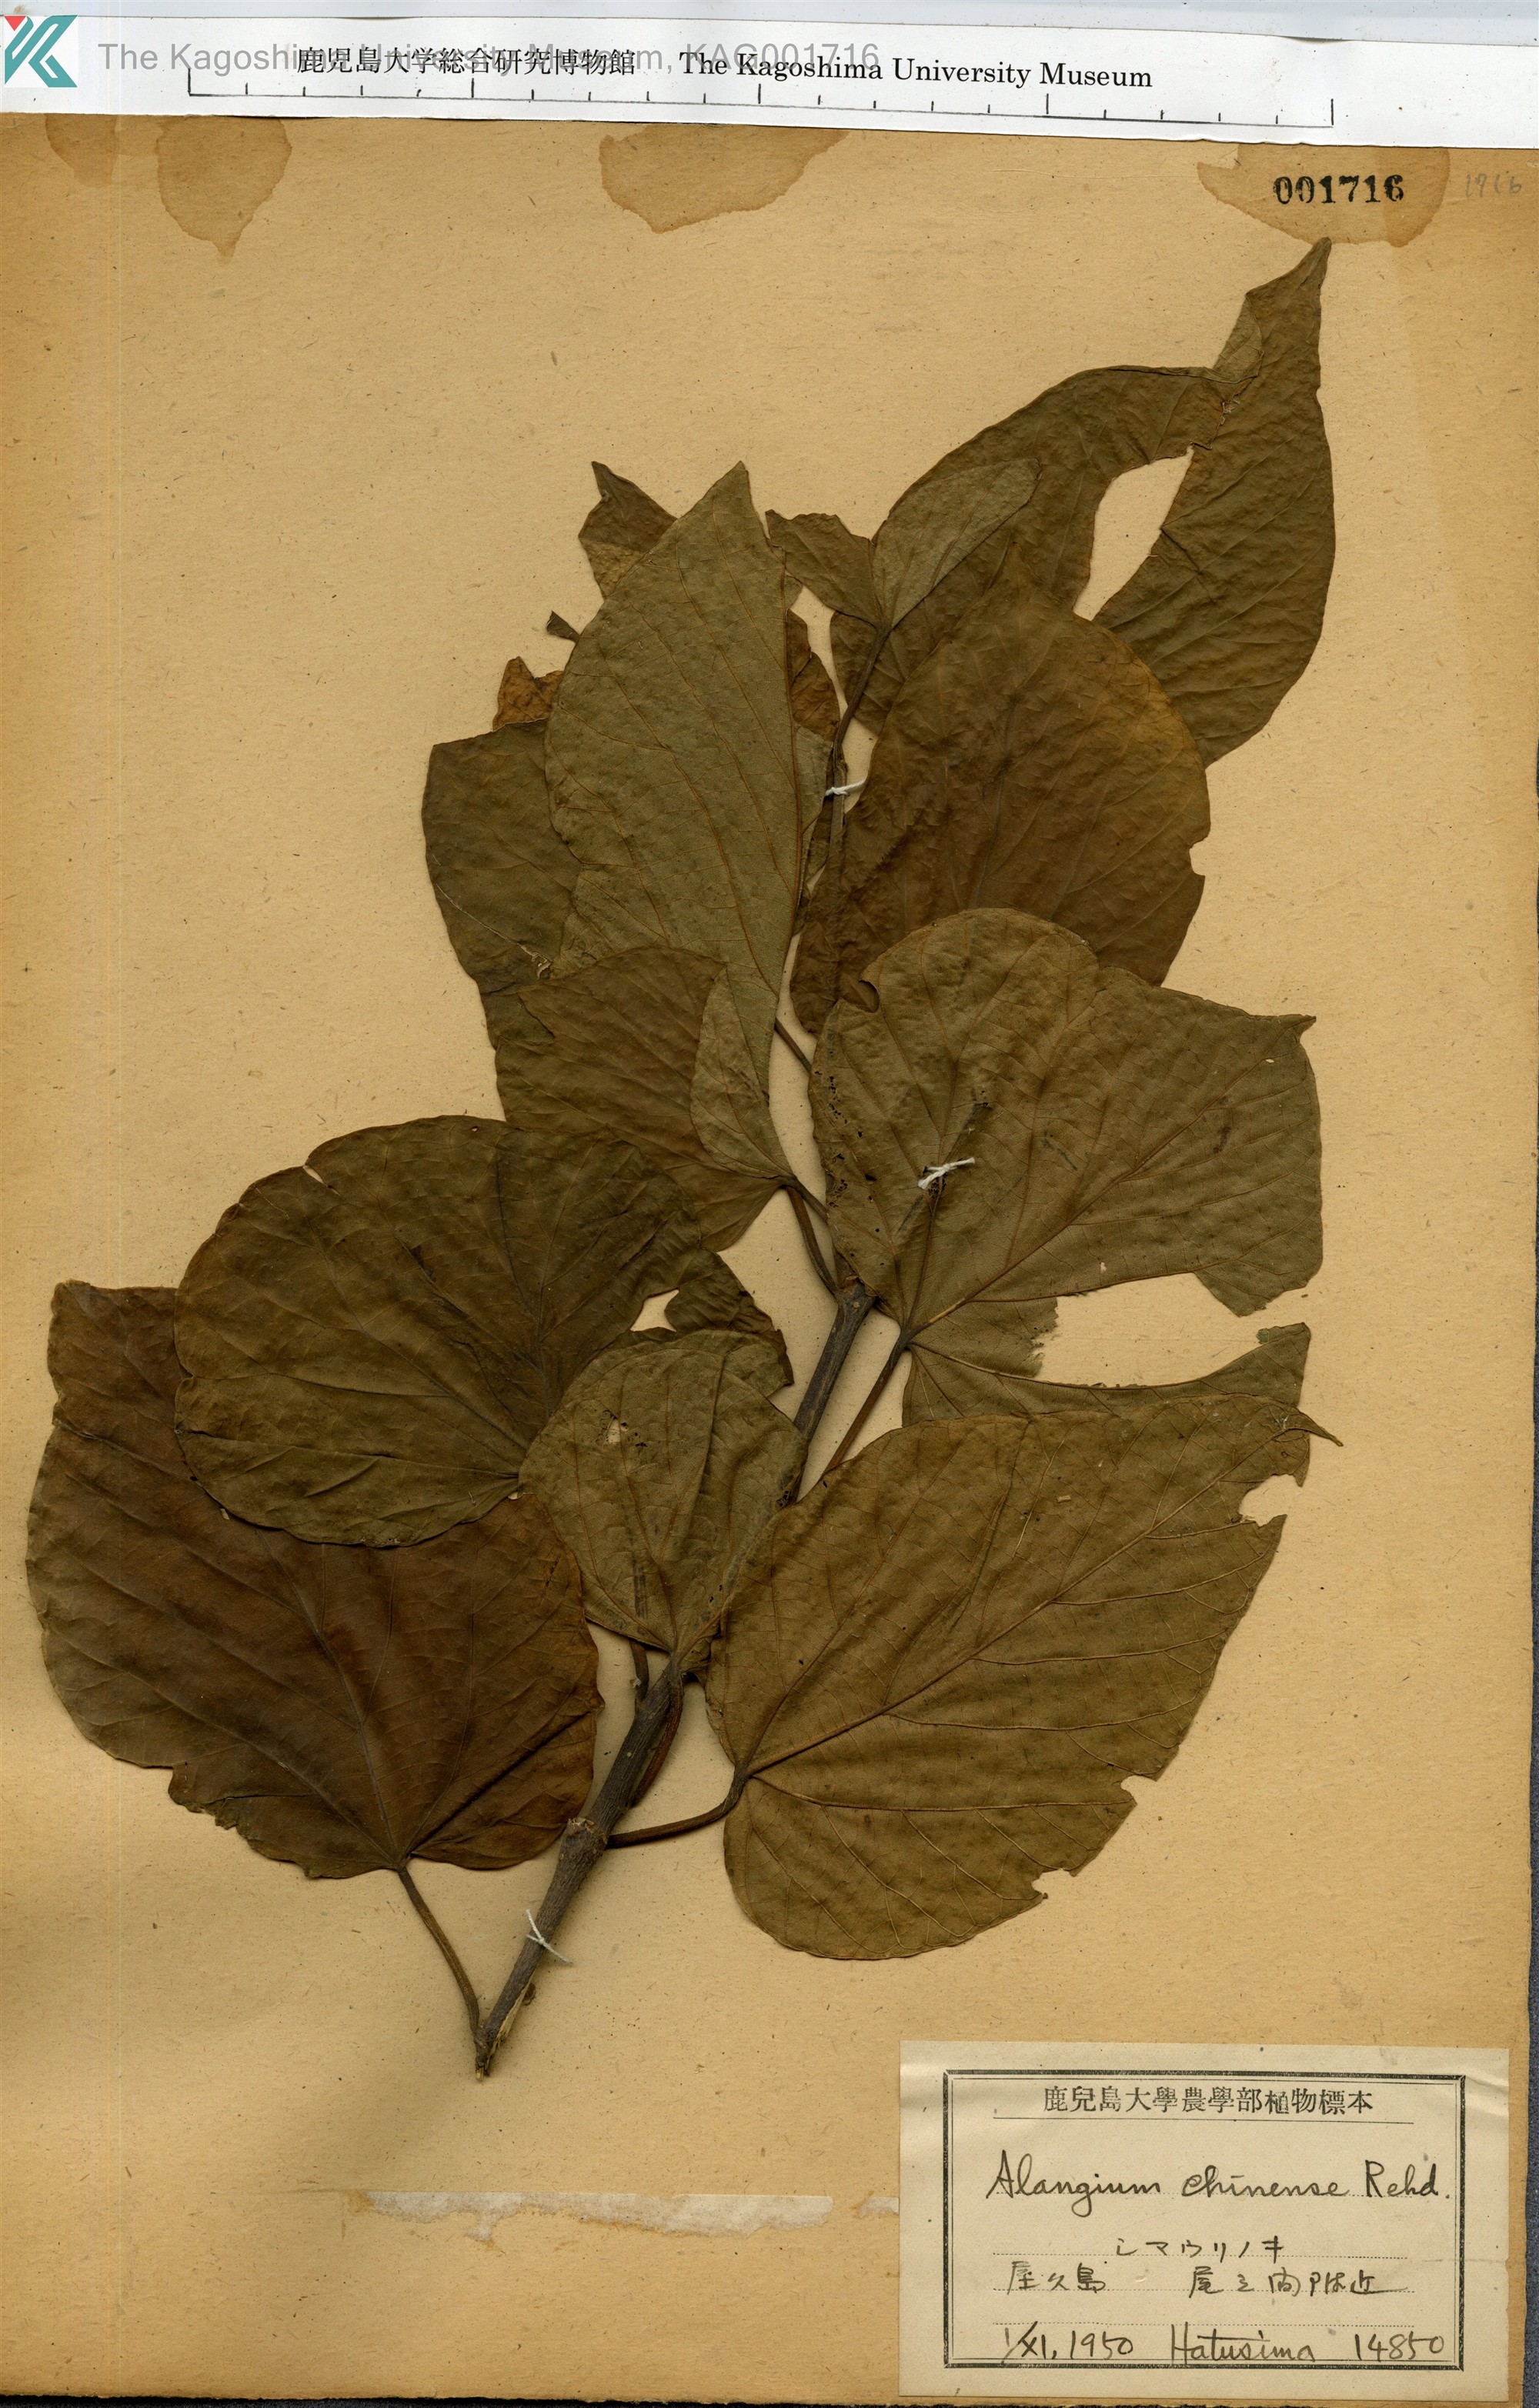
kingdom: Plantae
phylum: Tracheophyta
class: Magnoliopsida
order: Cornales
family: Cornaceae
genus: Alangium
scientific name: Alangium chinense
